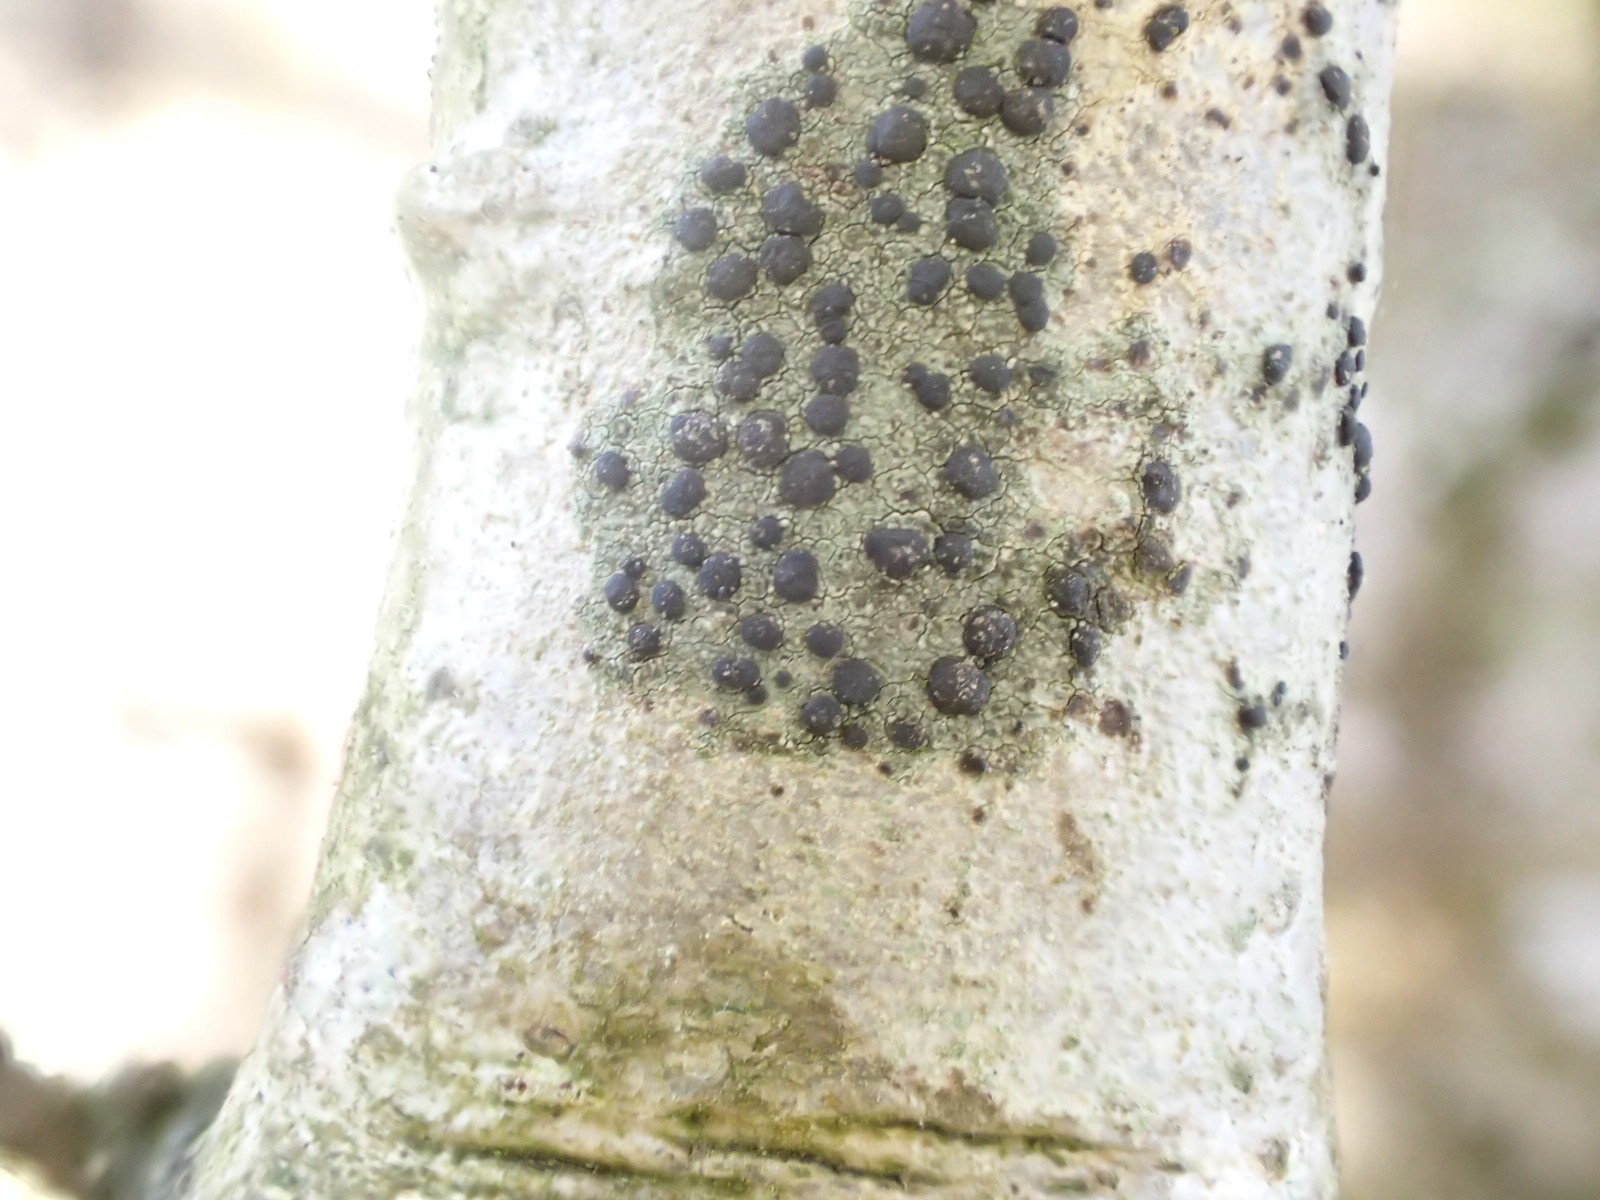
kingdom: Fungi
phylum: Ascomycota
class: Lecanoromycetes
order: Lecanorales
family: Lecanoraceae
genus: Lecidella
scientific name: Lecidella elaeochroma
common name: grågrøn skivelav
